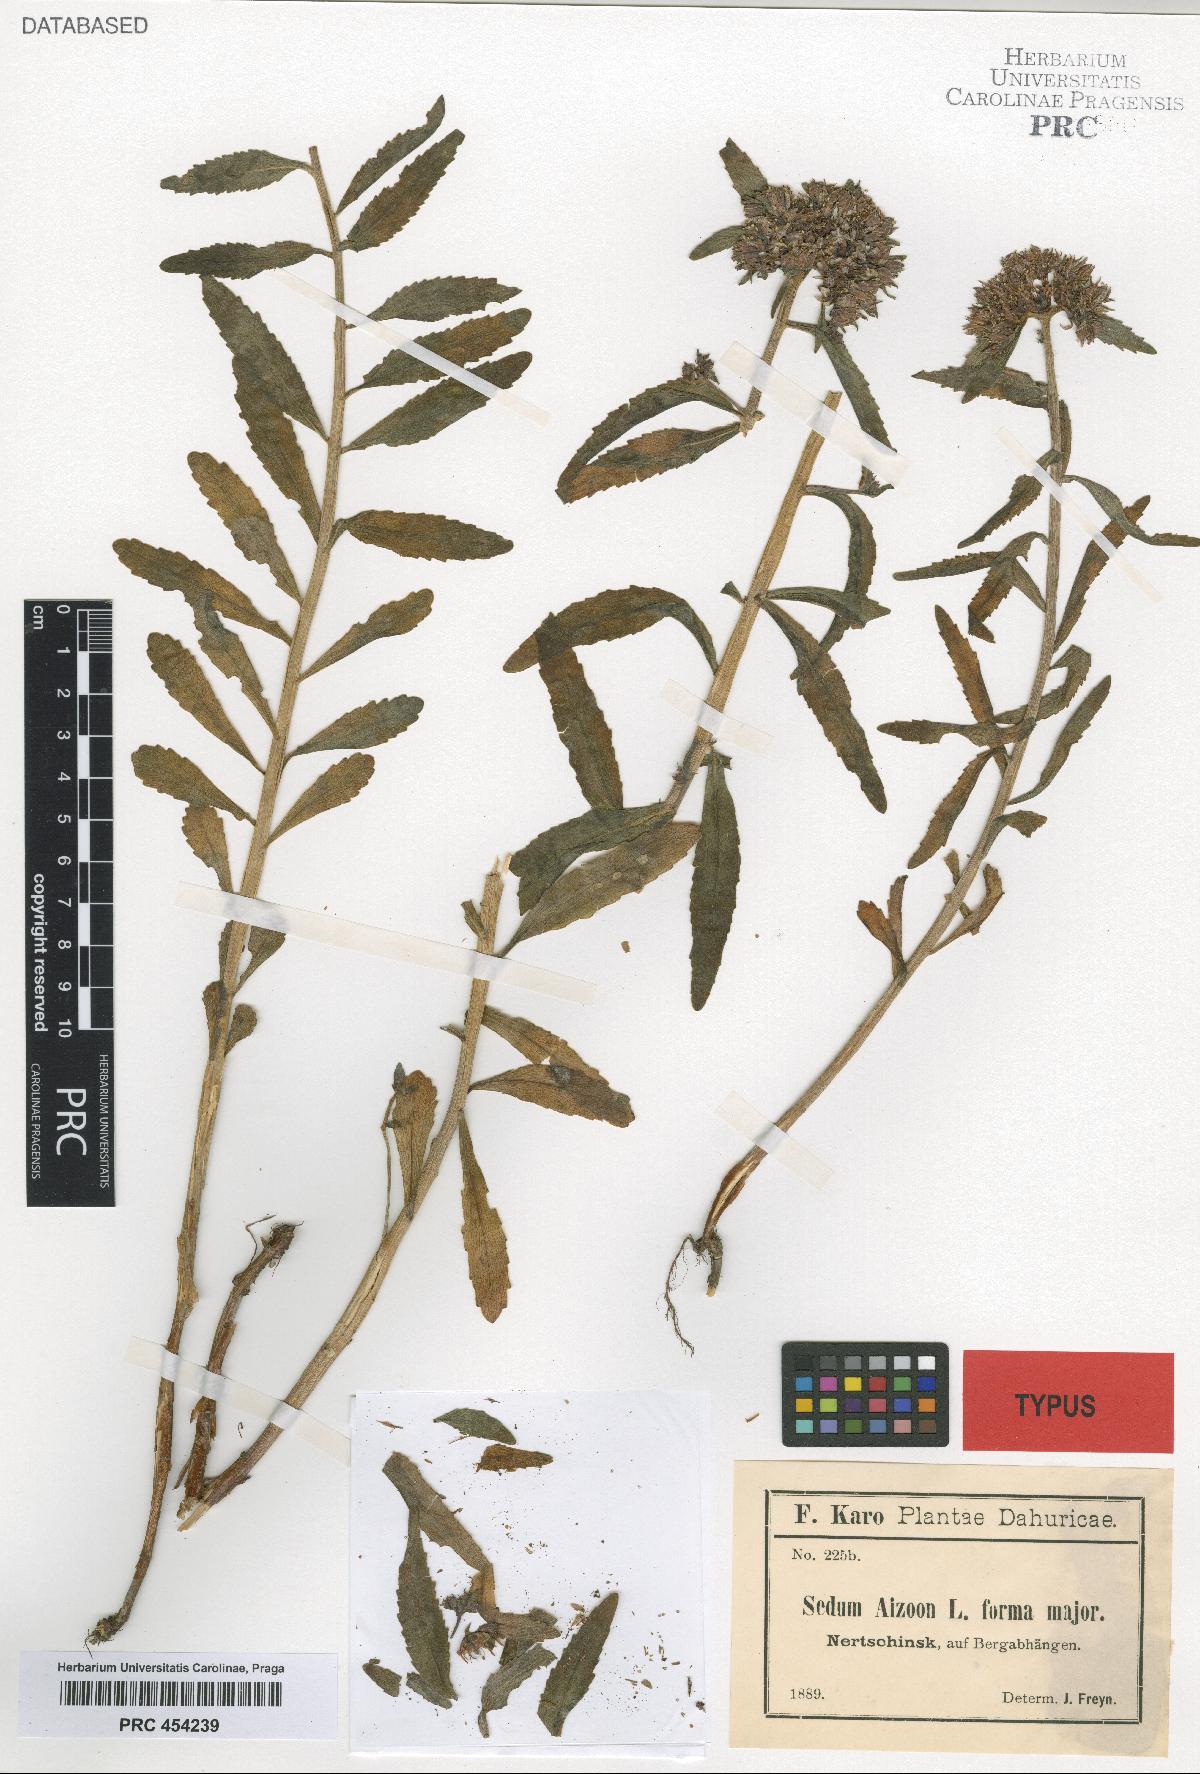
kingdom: Plantae
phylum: Tracheophyta
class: Magnoliopsida
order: Saxifragales
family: Crassulaceae
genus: Sedum
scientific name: Sedum aizoon
